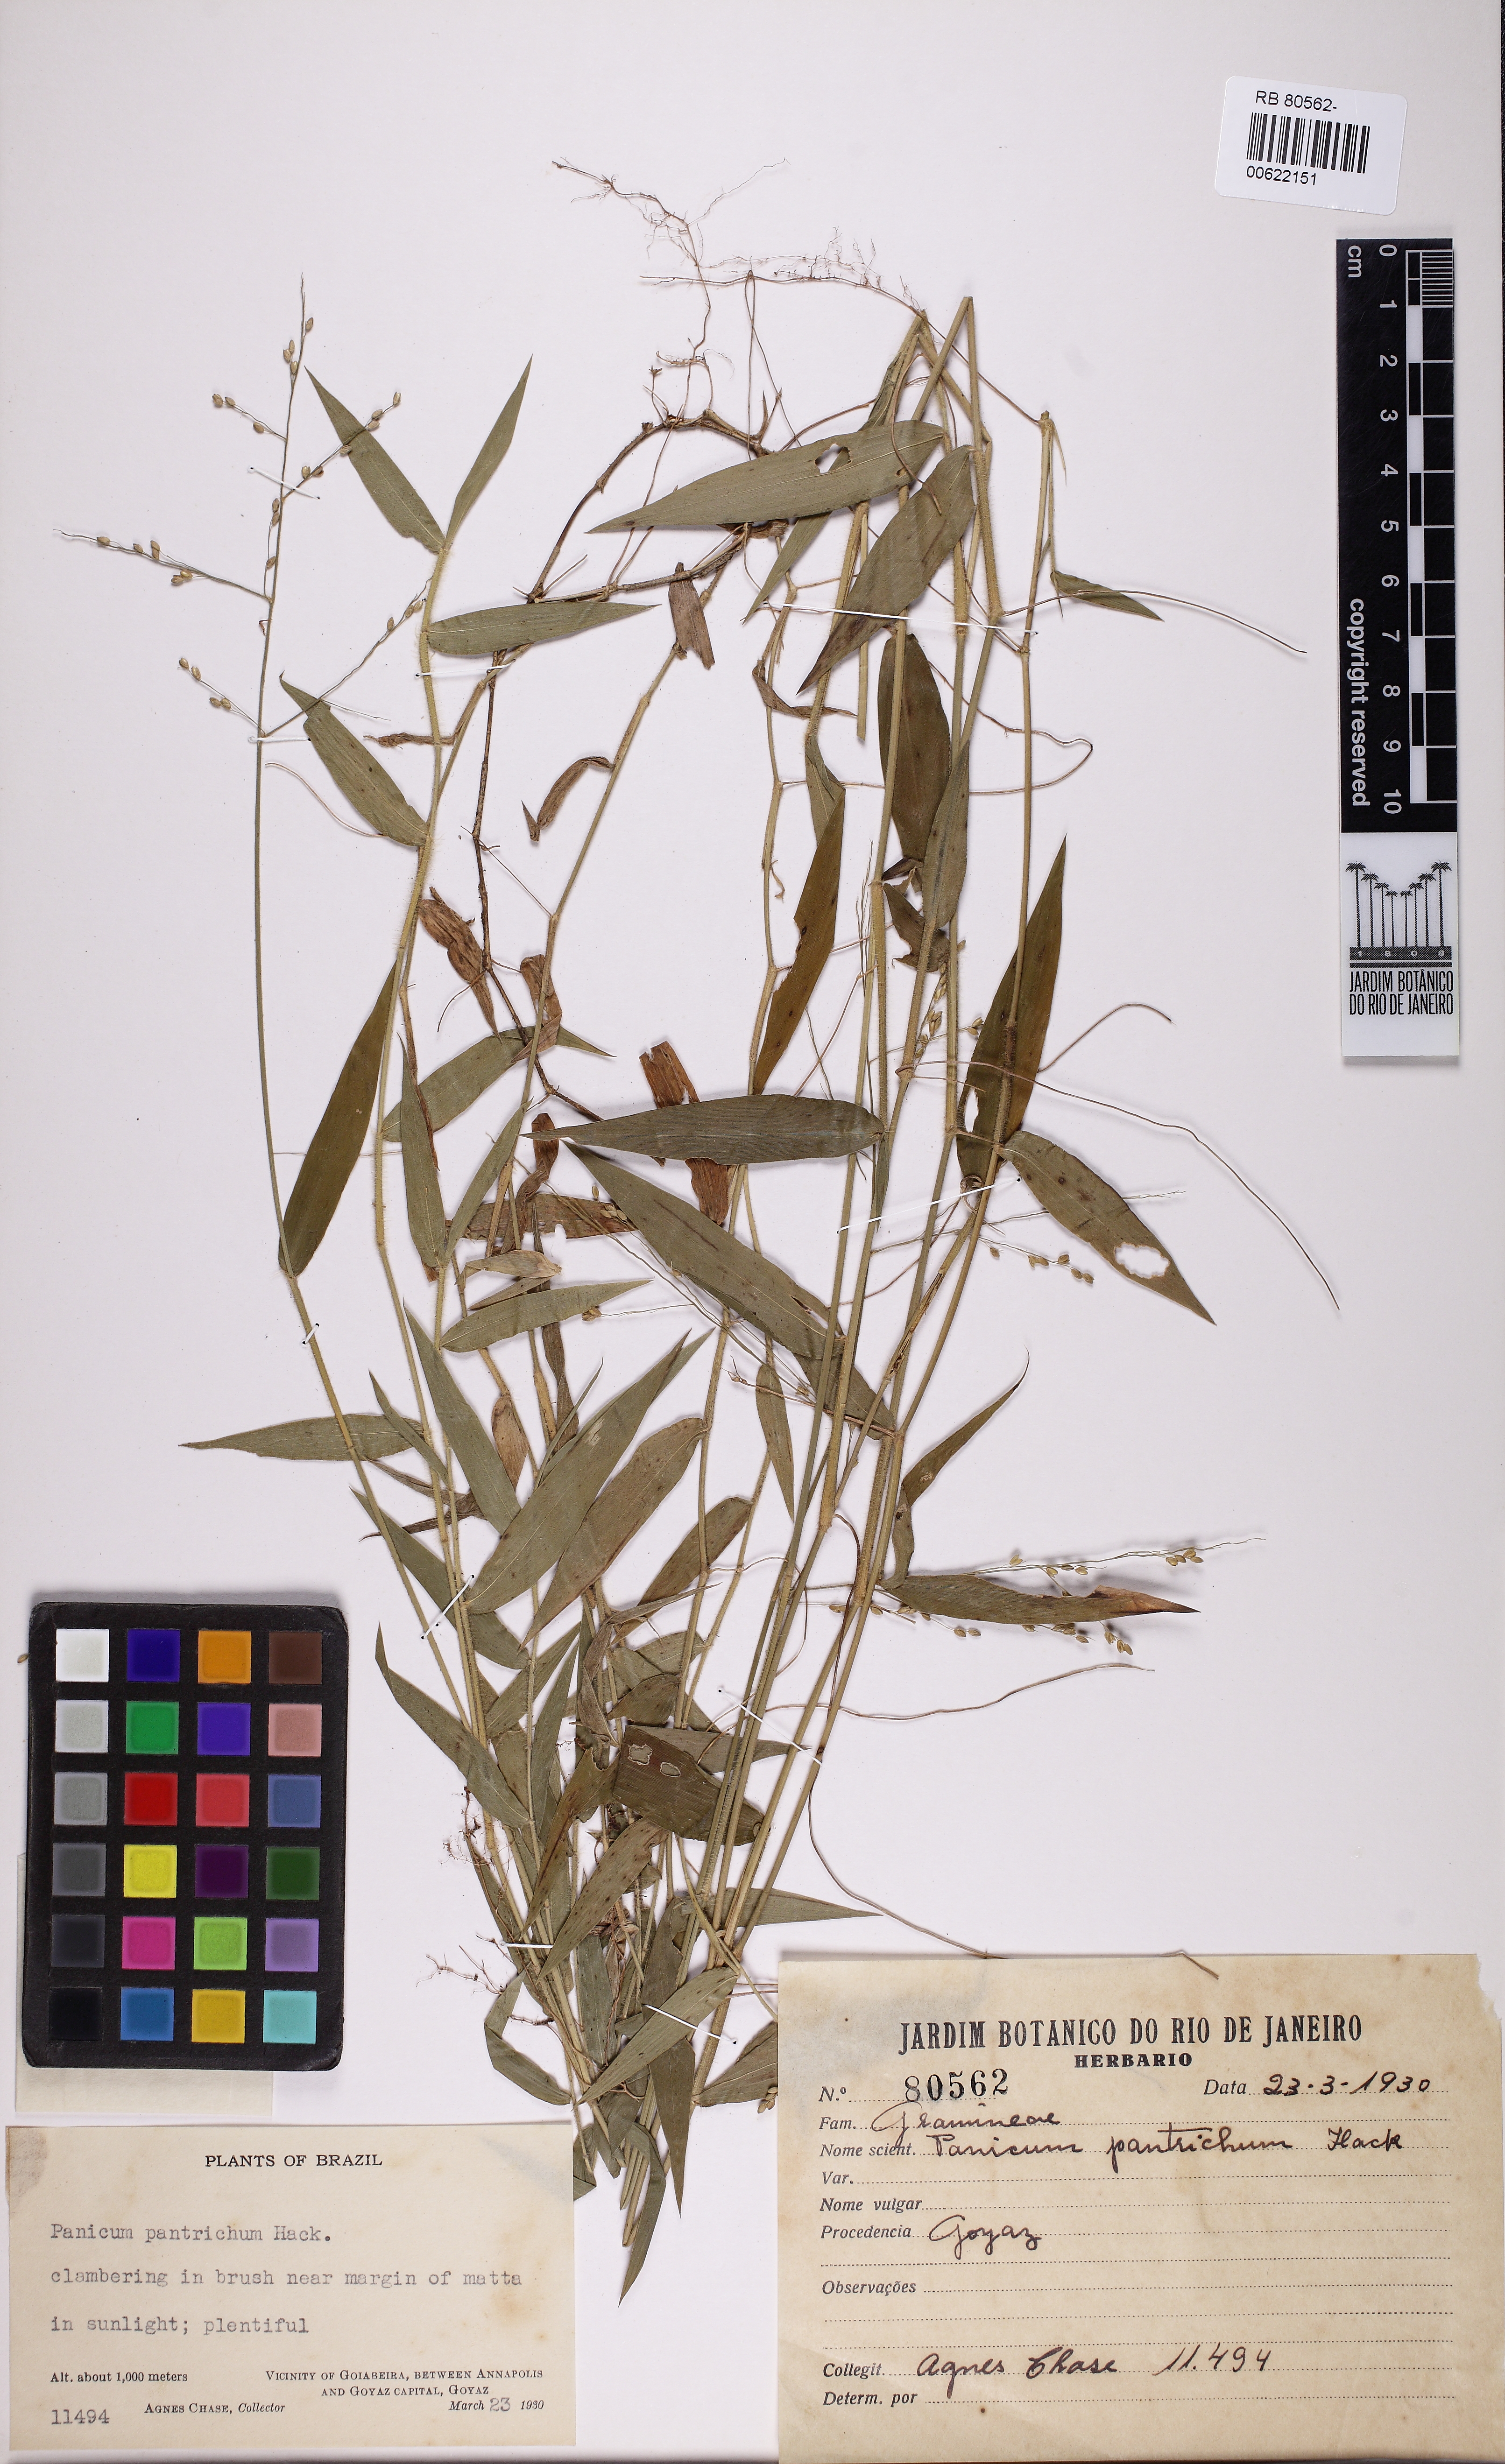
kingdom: Plantae
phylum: Tracheophyta
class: Liliopsida
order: Poales
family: Poaceae
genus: Parodiophyllochloa
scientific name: Parodiophyllochloa ovulifera
